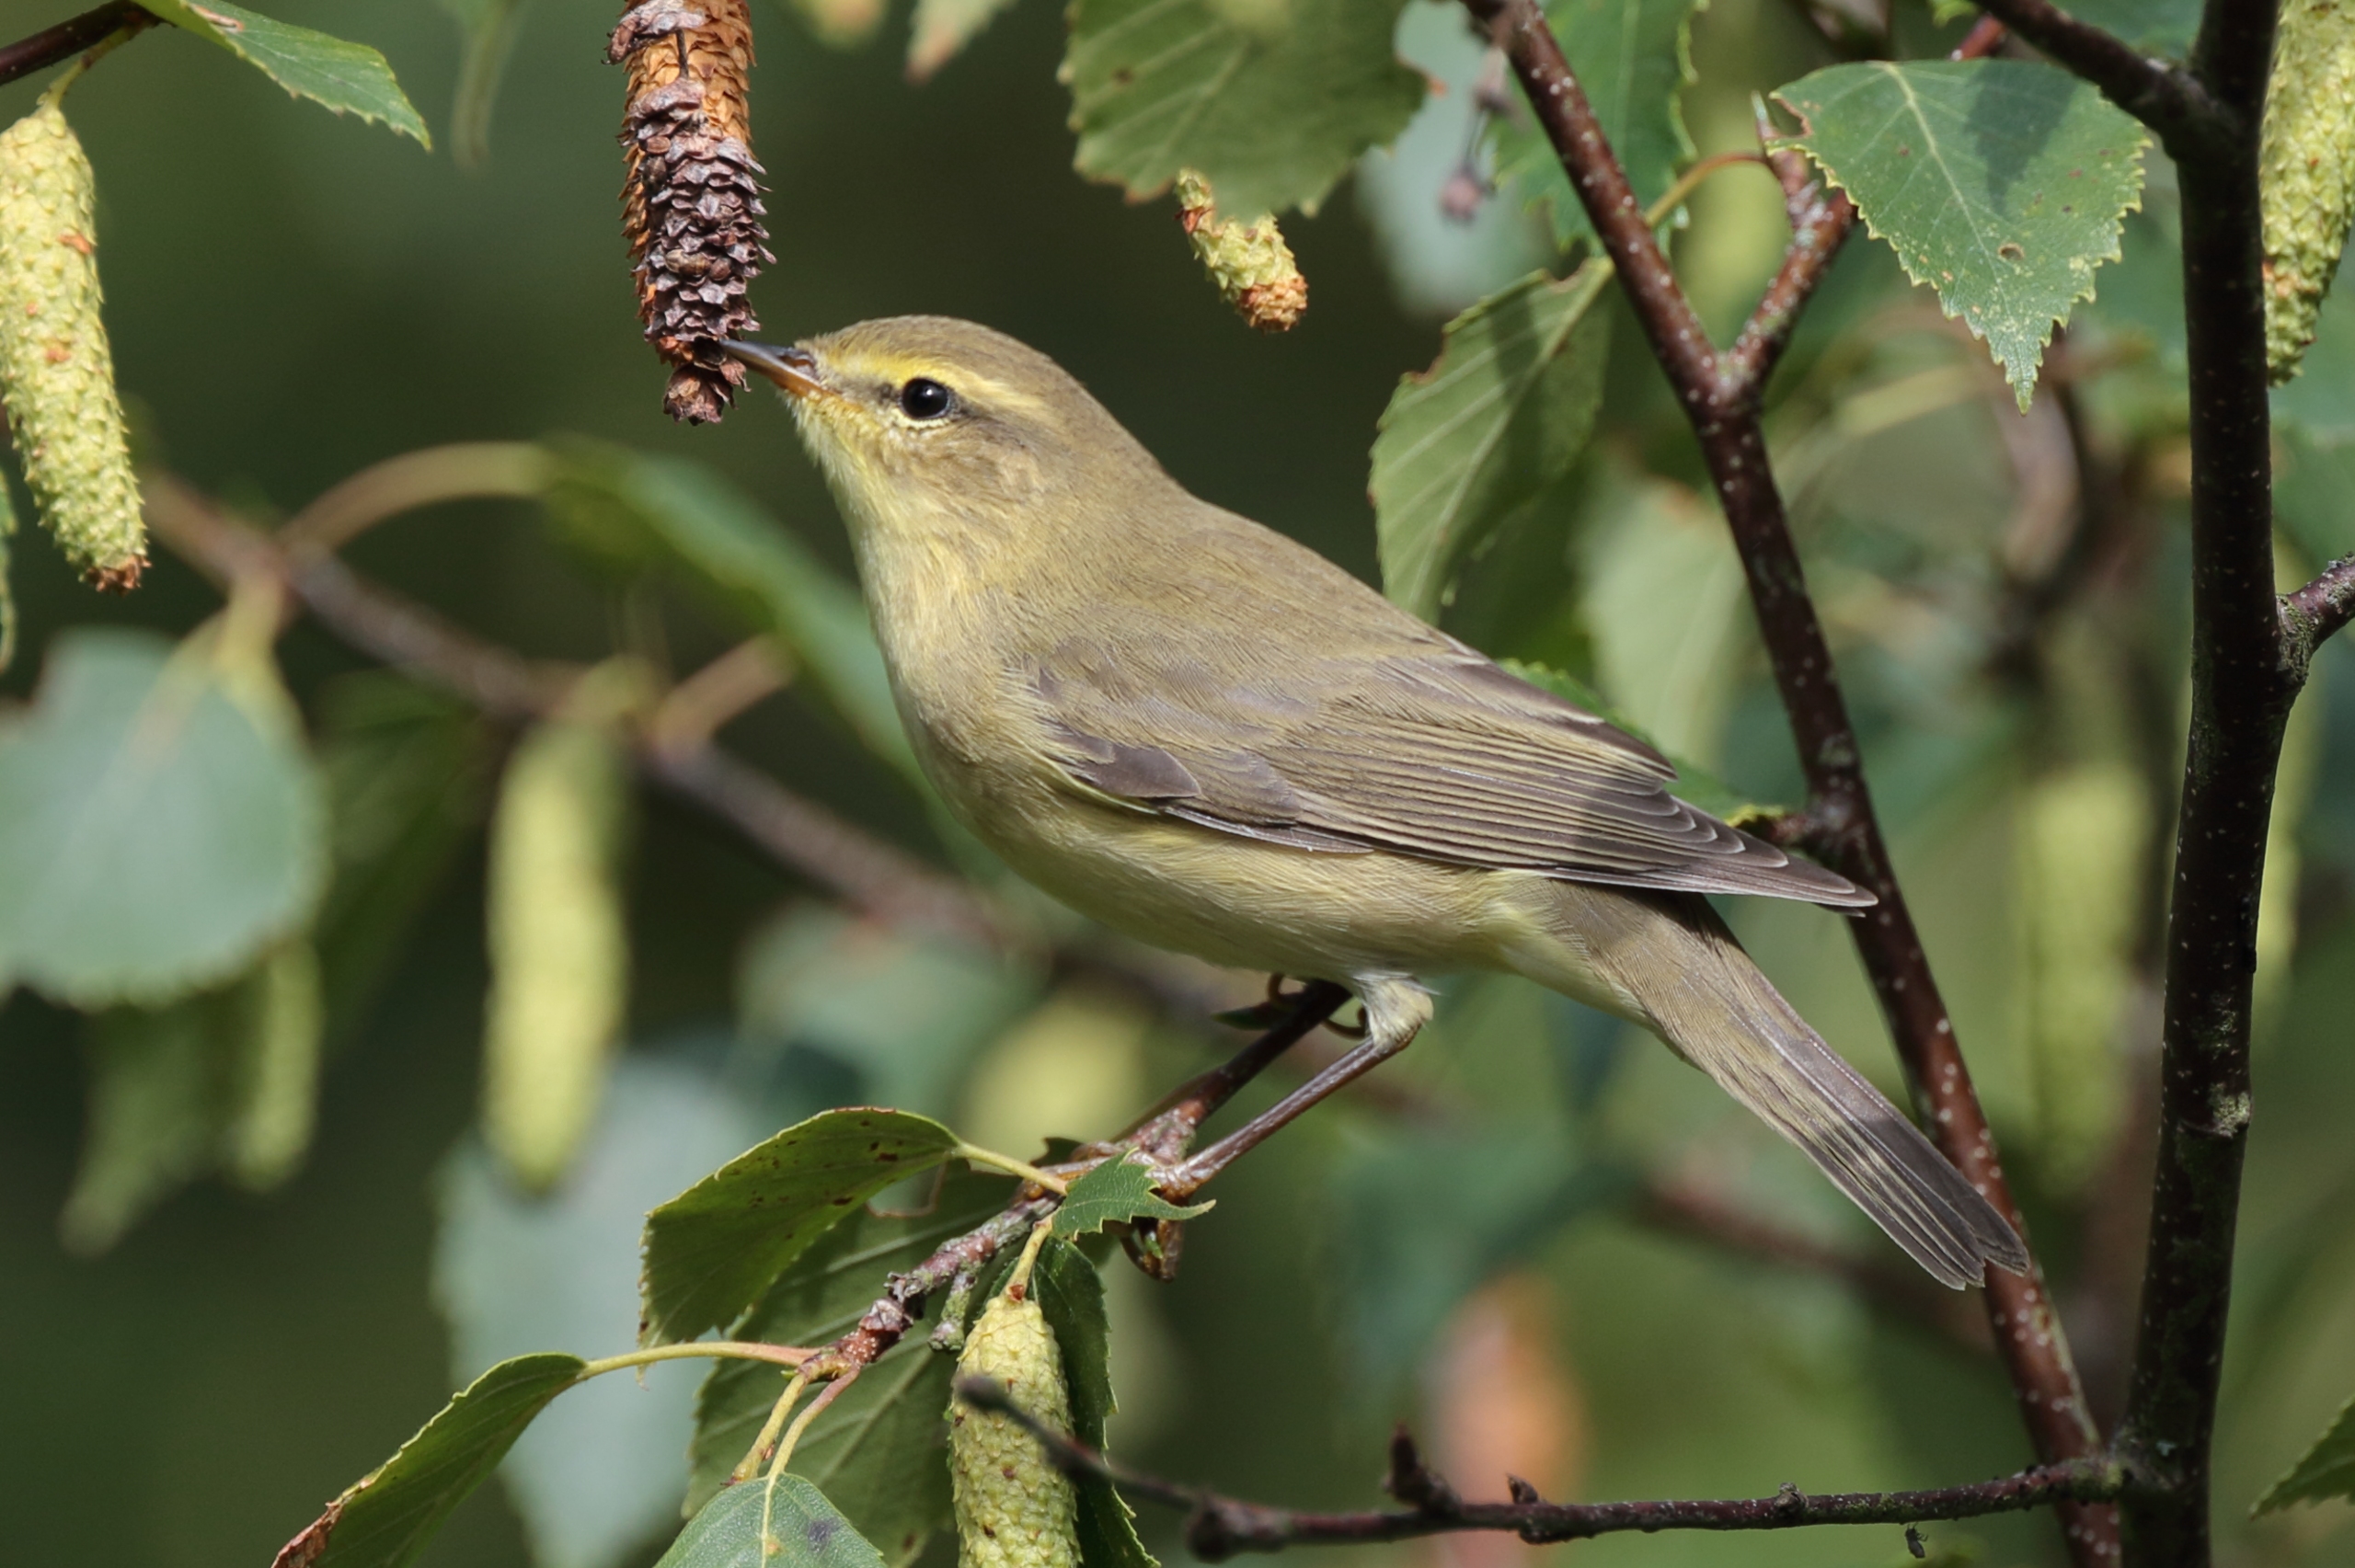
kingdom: Animalia
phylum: Chordata
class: Aves
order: Passeriformes
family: Phylloscopidae
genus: Phylloscopus
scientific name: Phylloscopus collybita
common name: Gransanger
